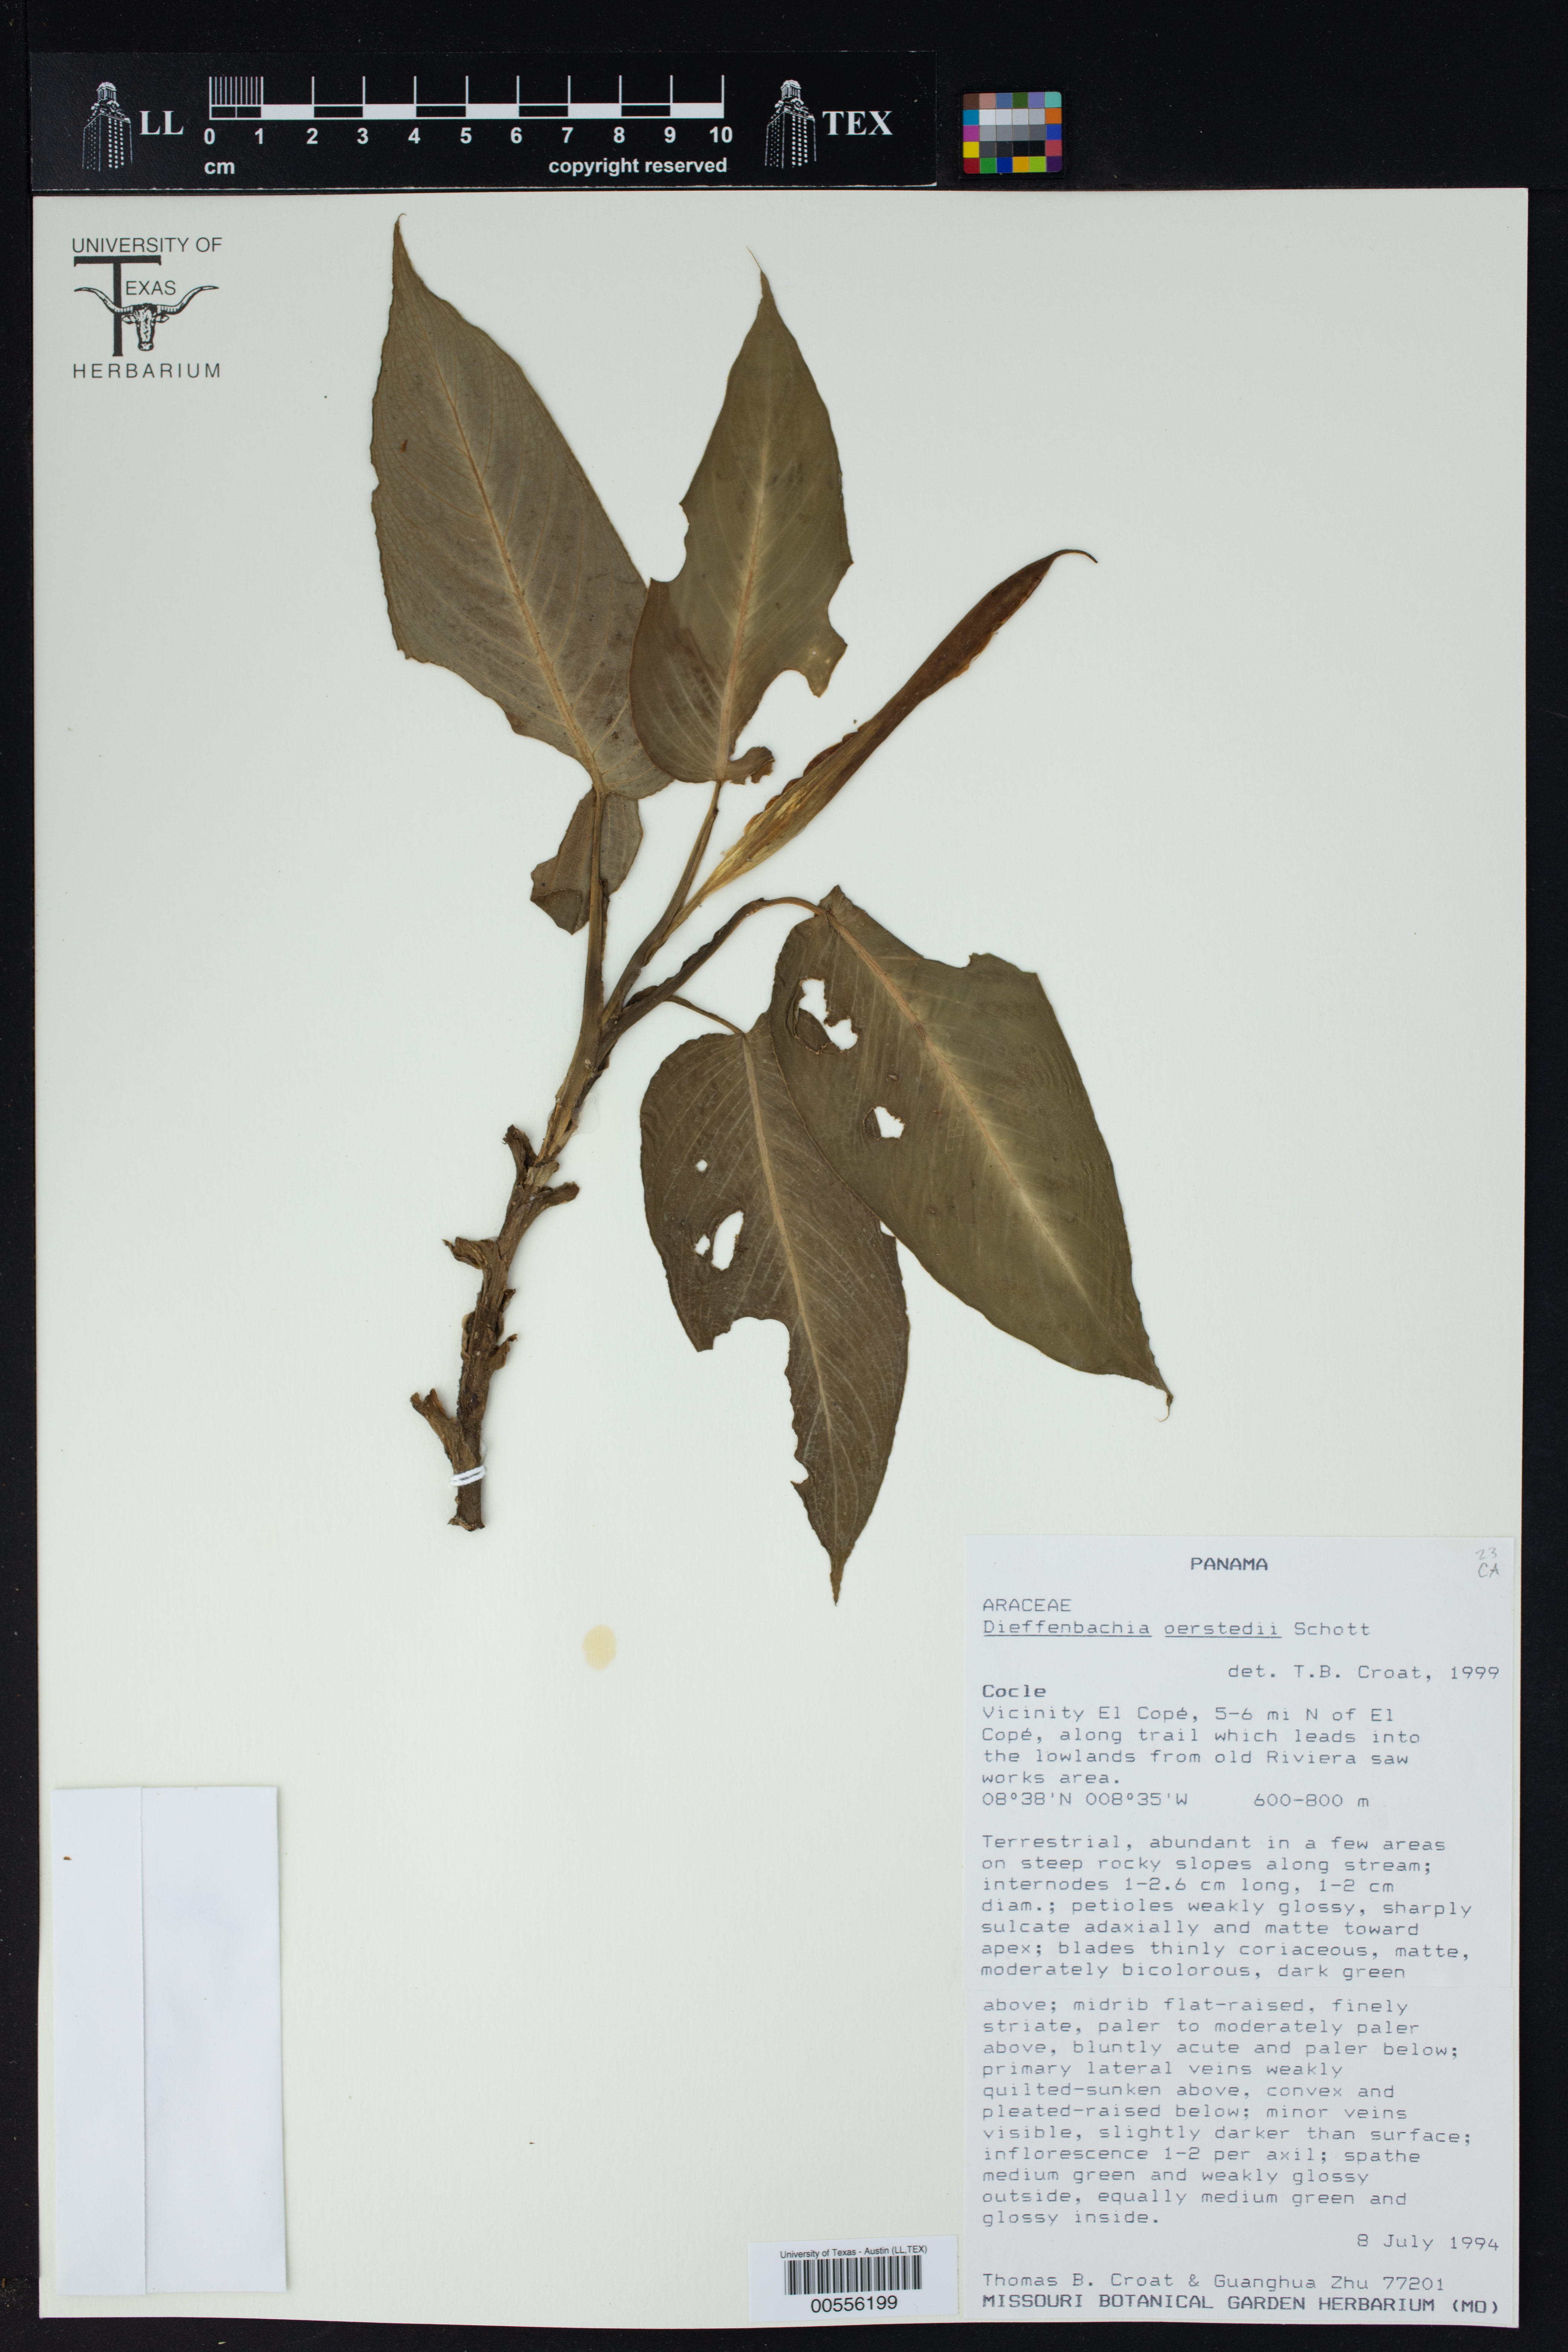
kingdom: Plantae
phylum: Tracheophyta
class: Liliopsida
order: Alismatales
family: Araceae
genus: Dieffenbachia
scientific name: Dieffenbachia oerstedii
